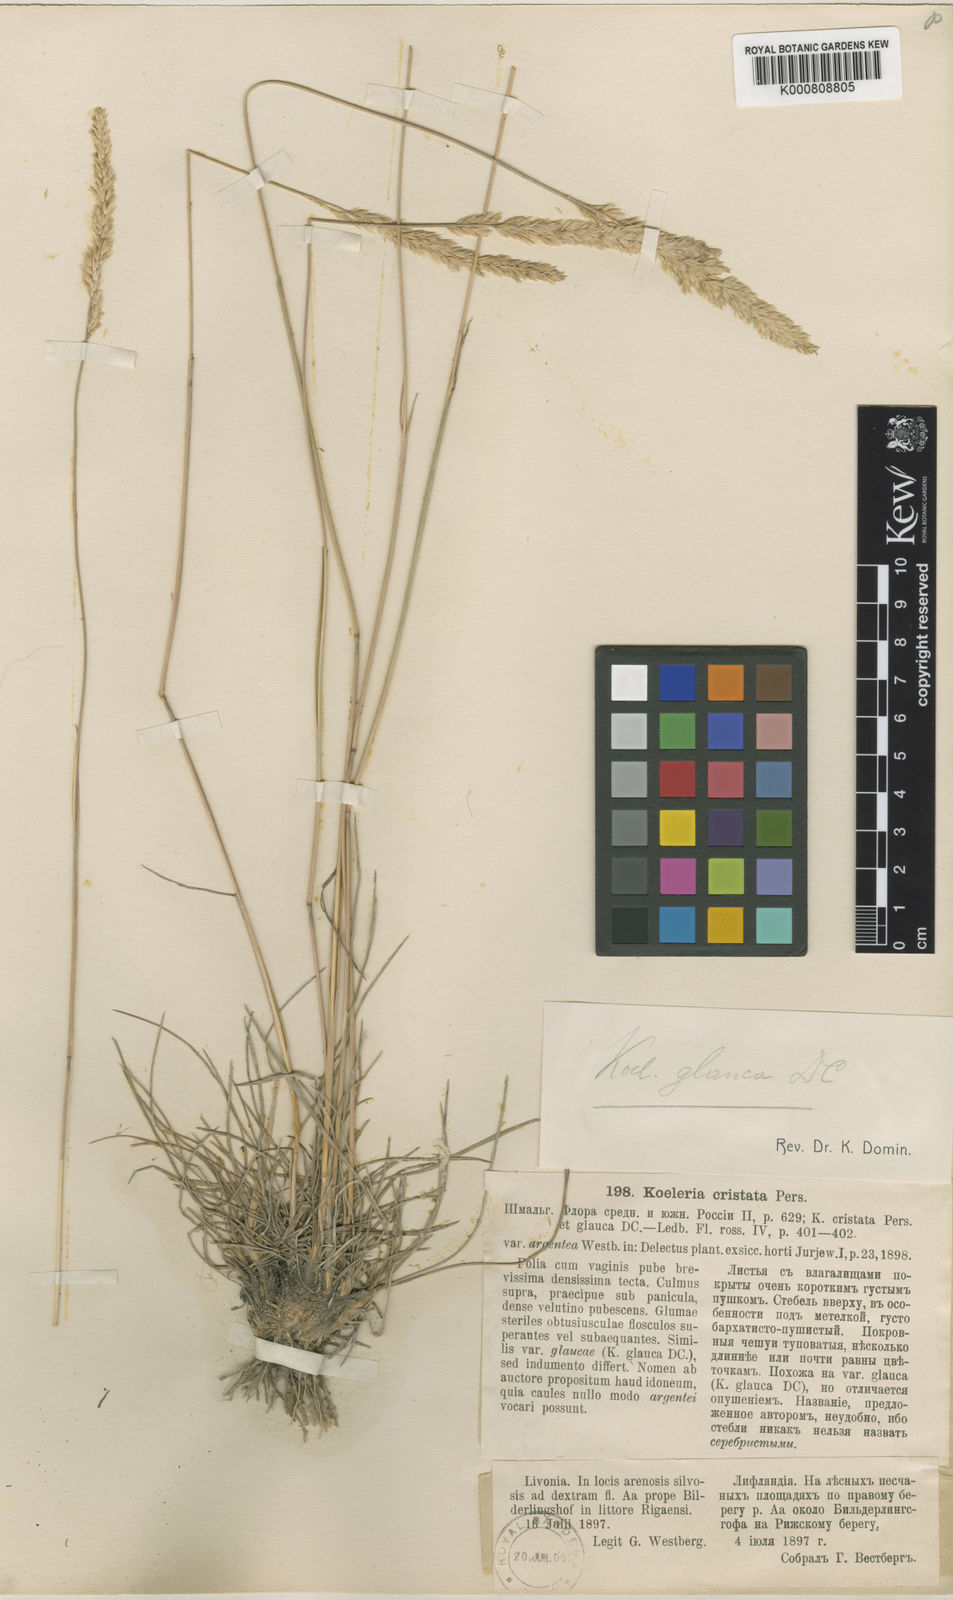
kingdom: Plantae
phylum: Tracheophyta
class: Liliopsida
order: Poales
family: Poaceae
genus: Koeleria
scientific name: Koeleria glauca
